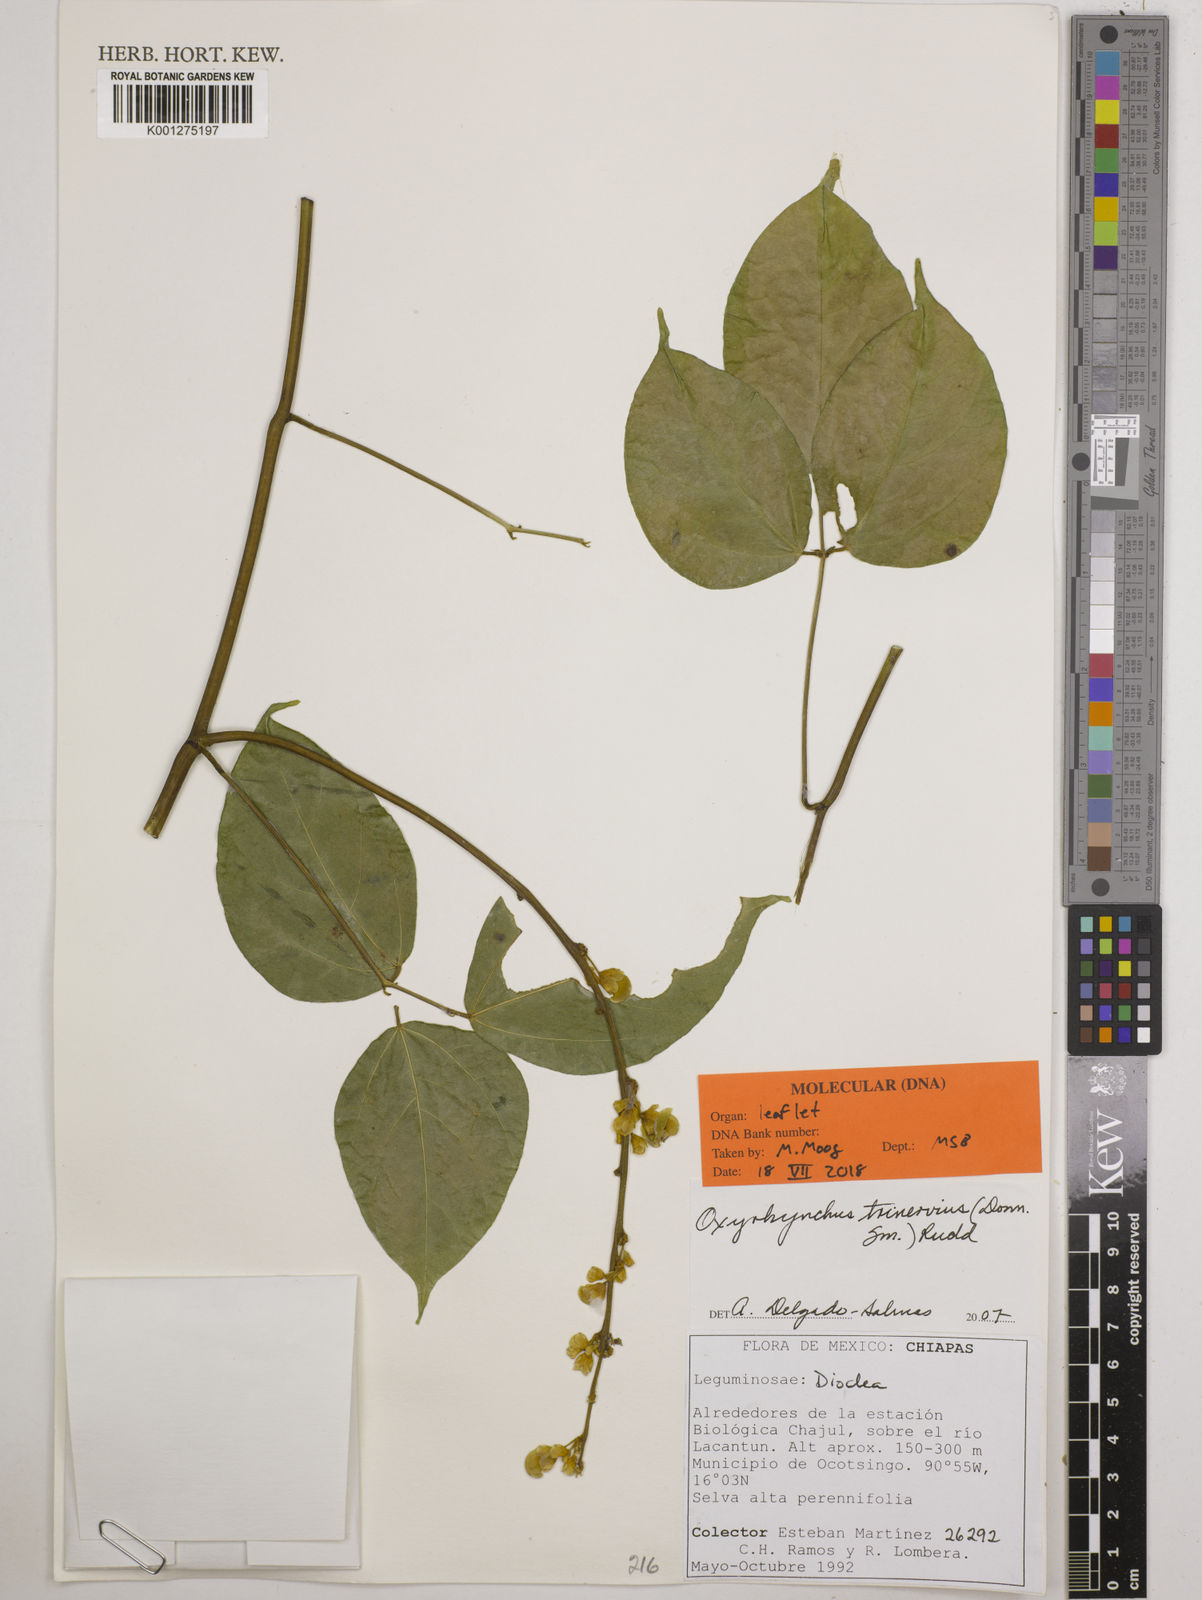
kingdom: Plantae
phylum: Tracheophyta
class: Magnoliopsida
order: Fabales
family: Fabaceae
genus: Oxyrhynchus
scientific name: Oxyrhynchus trinervius
